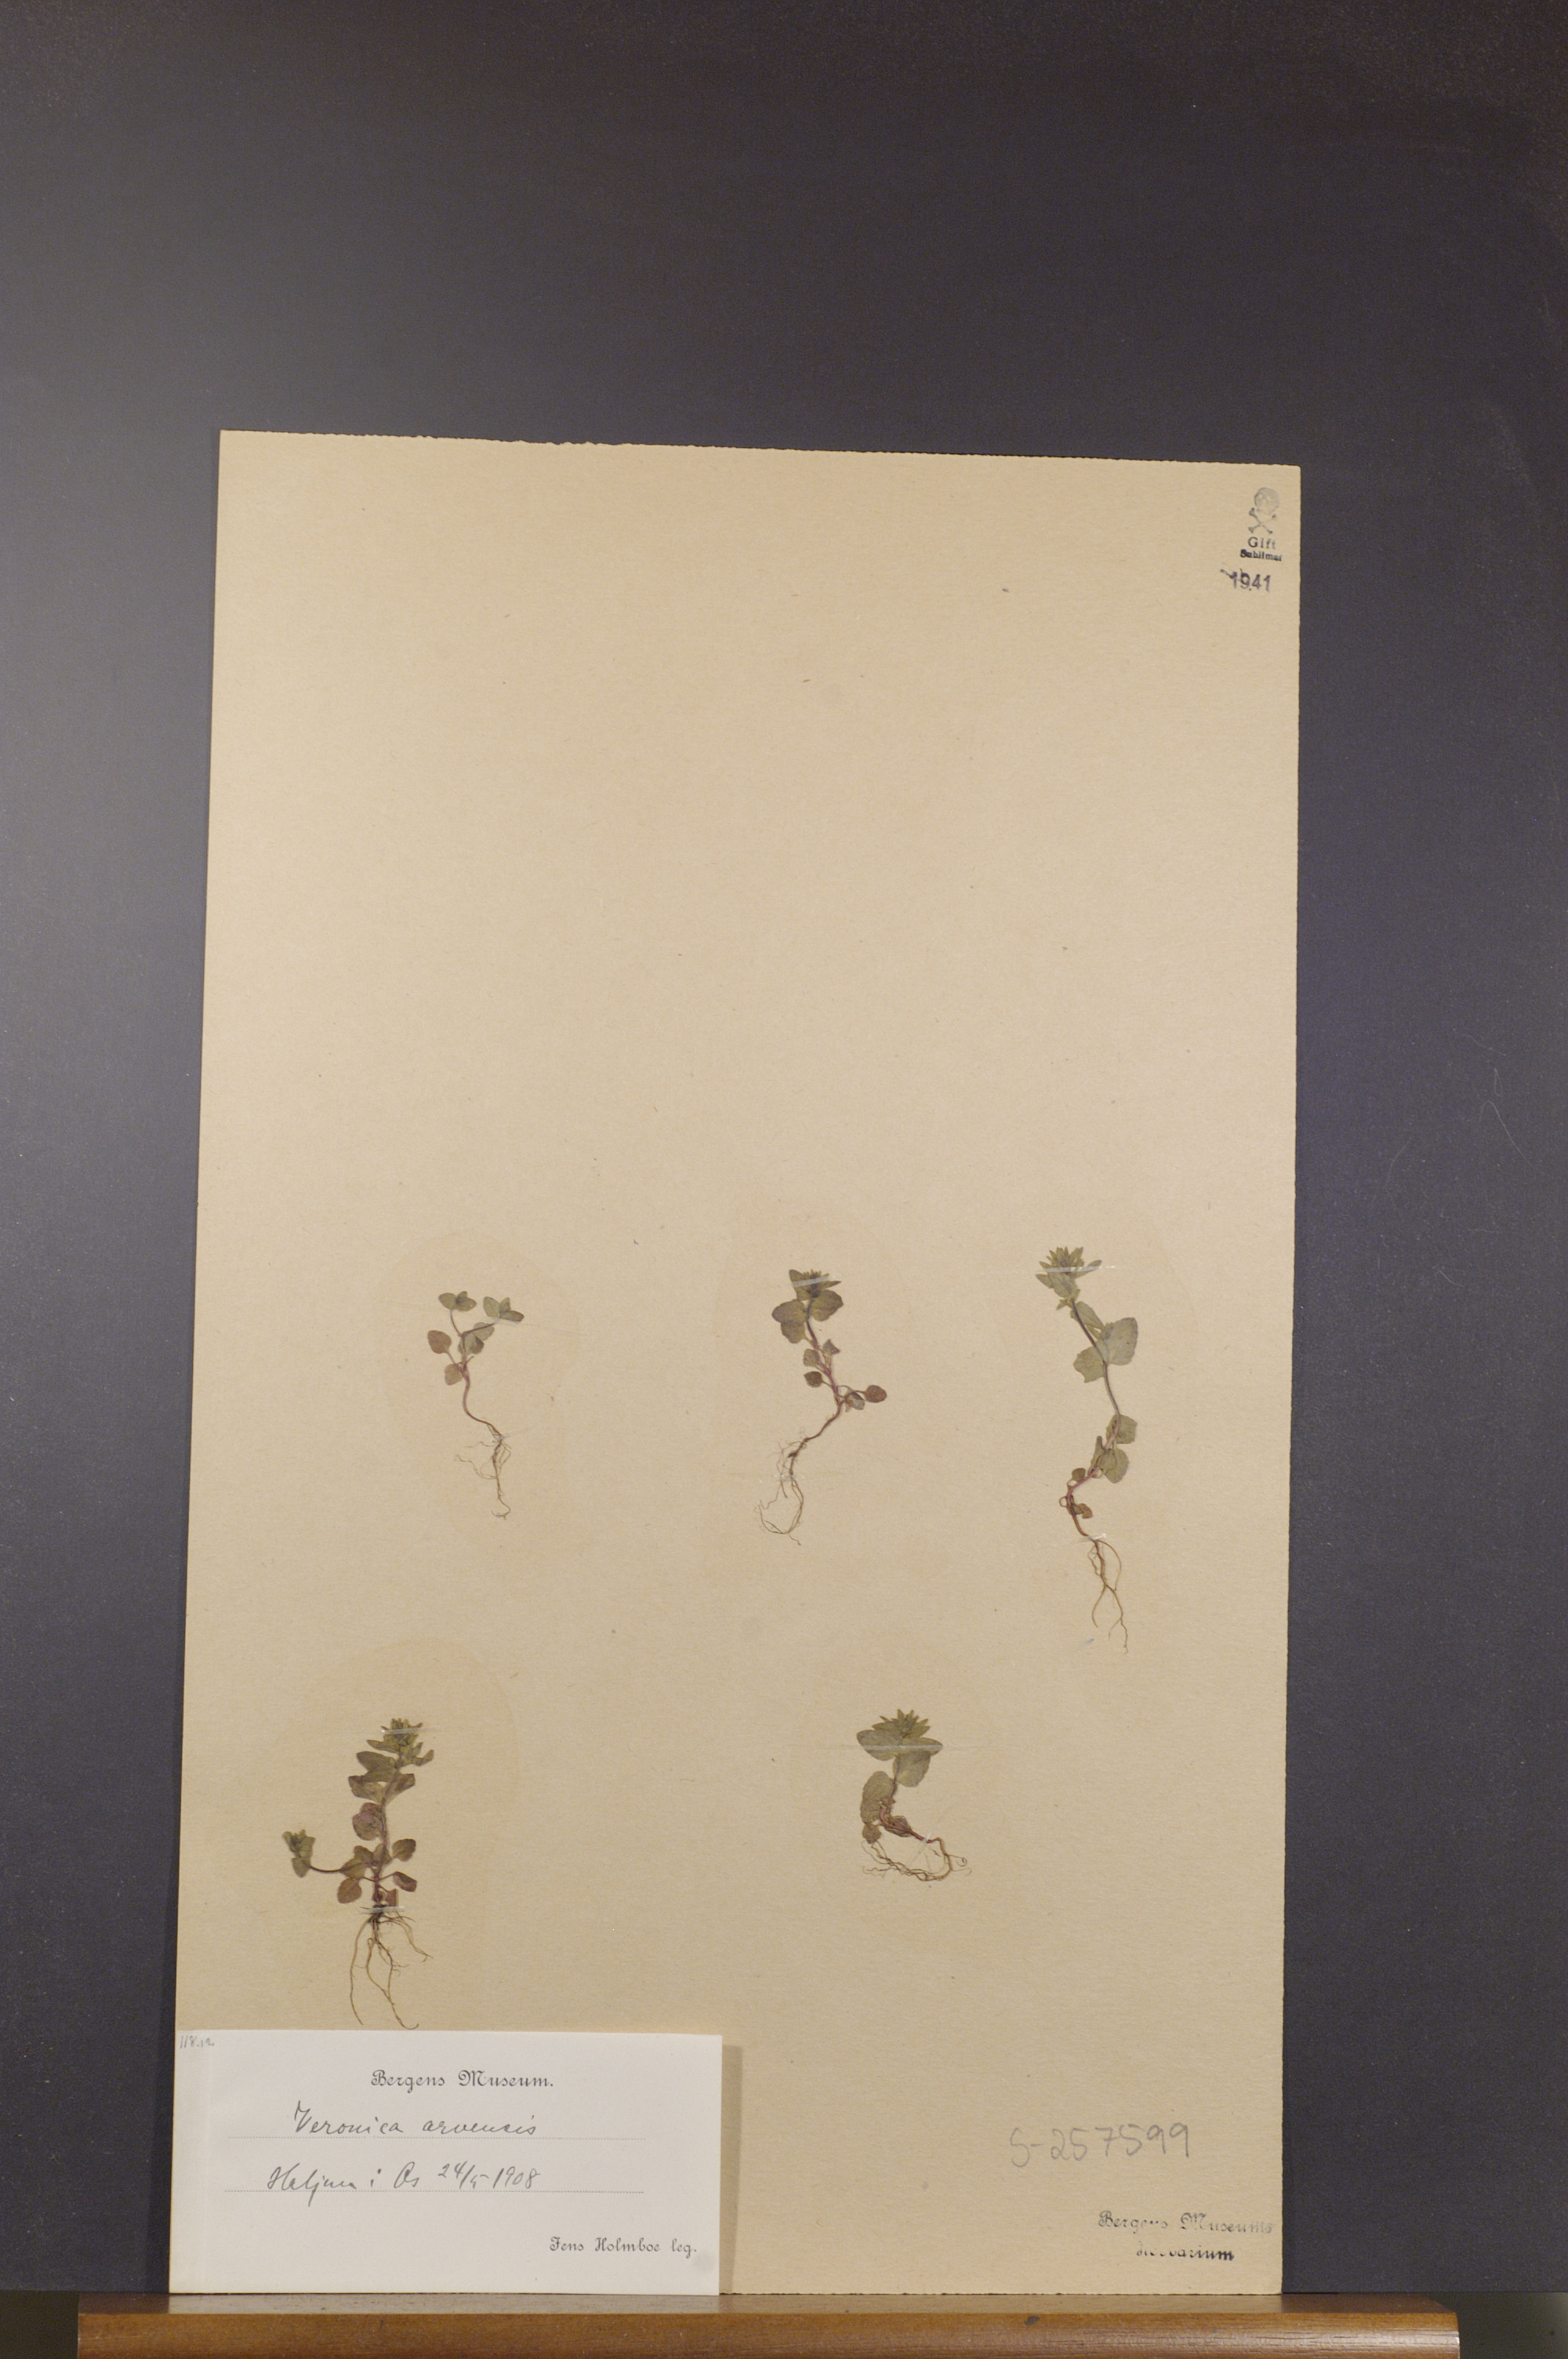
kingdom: Plantae
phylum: Tracheophyta
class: Magnoliopsida
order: Lamiales
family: Plantaginaceae
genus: Veronica
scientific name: Veronica arvensis
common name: Corn speedwell
